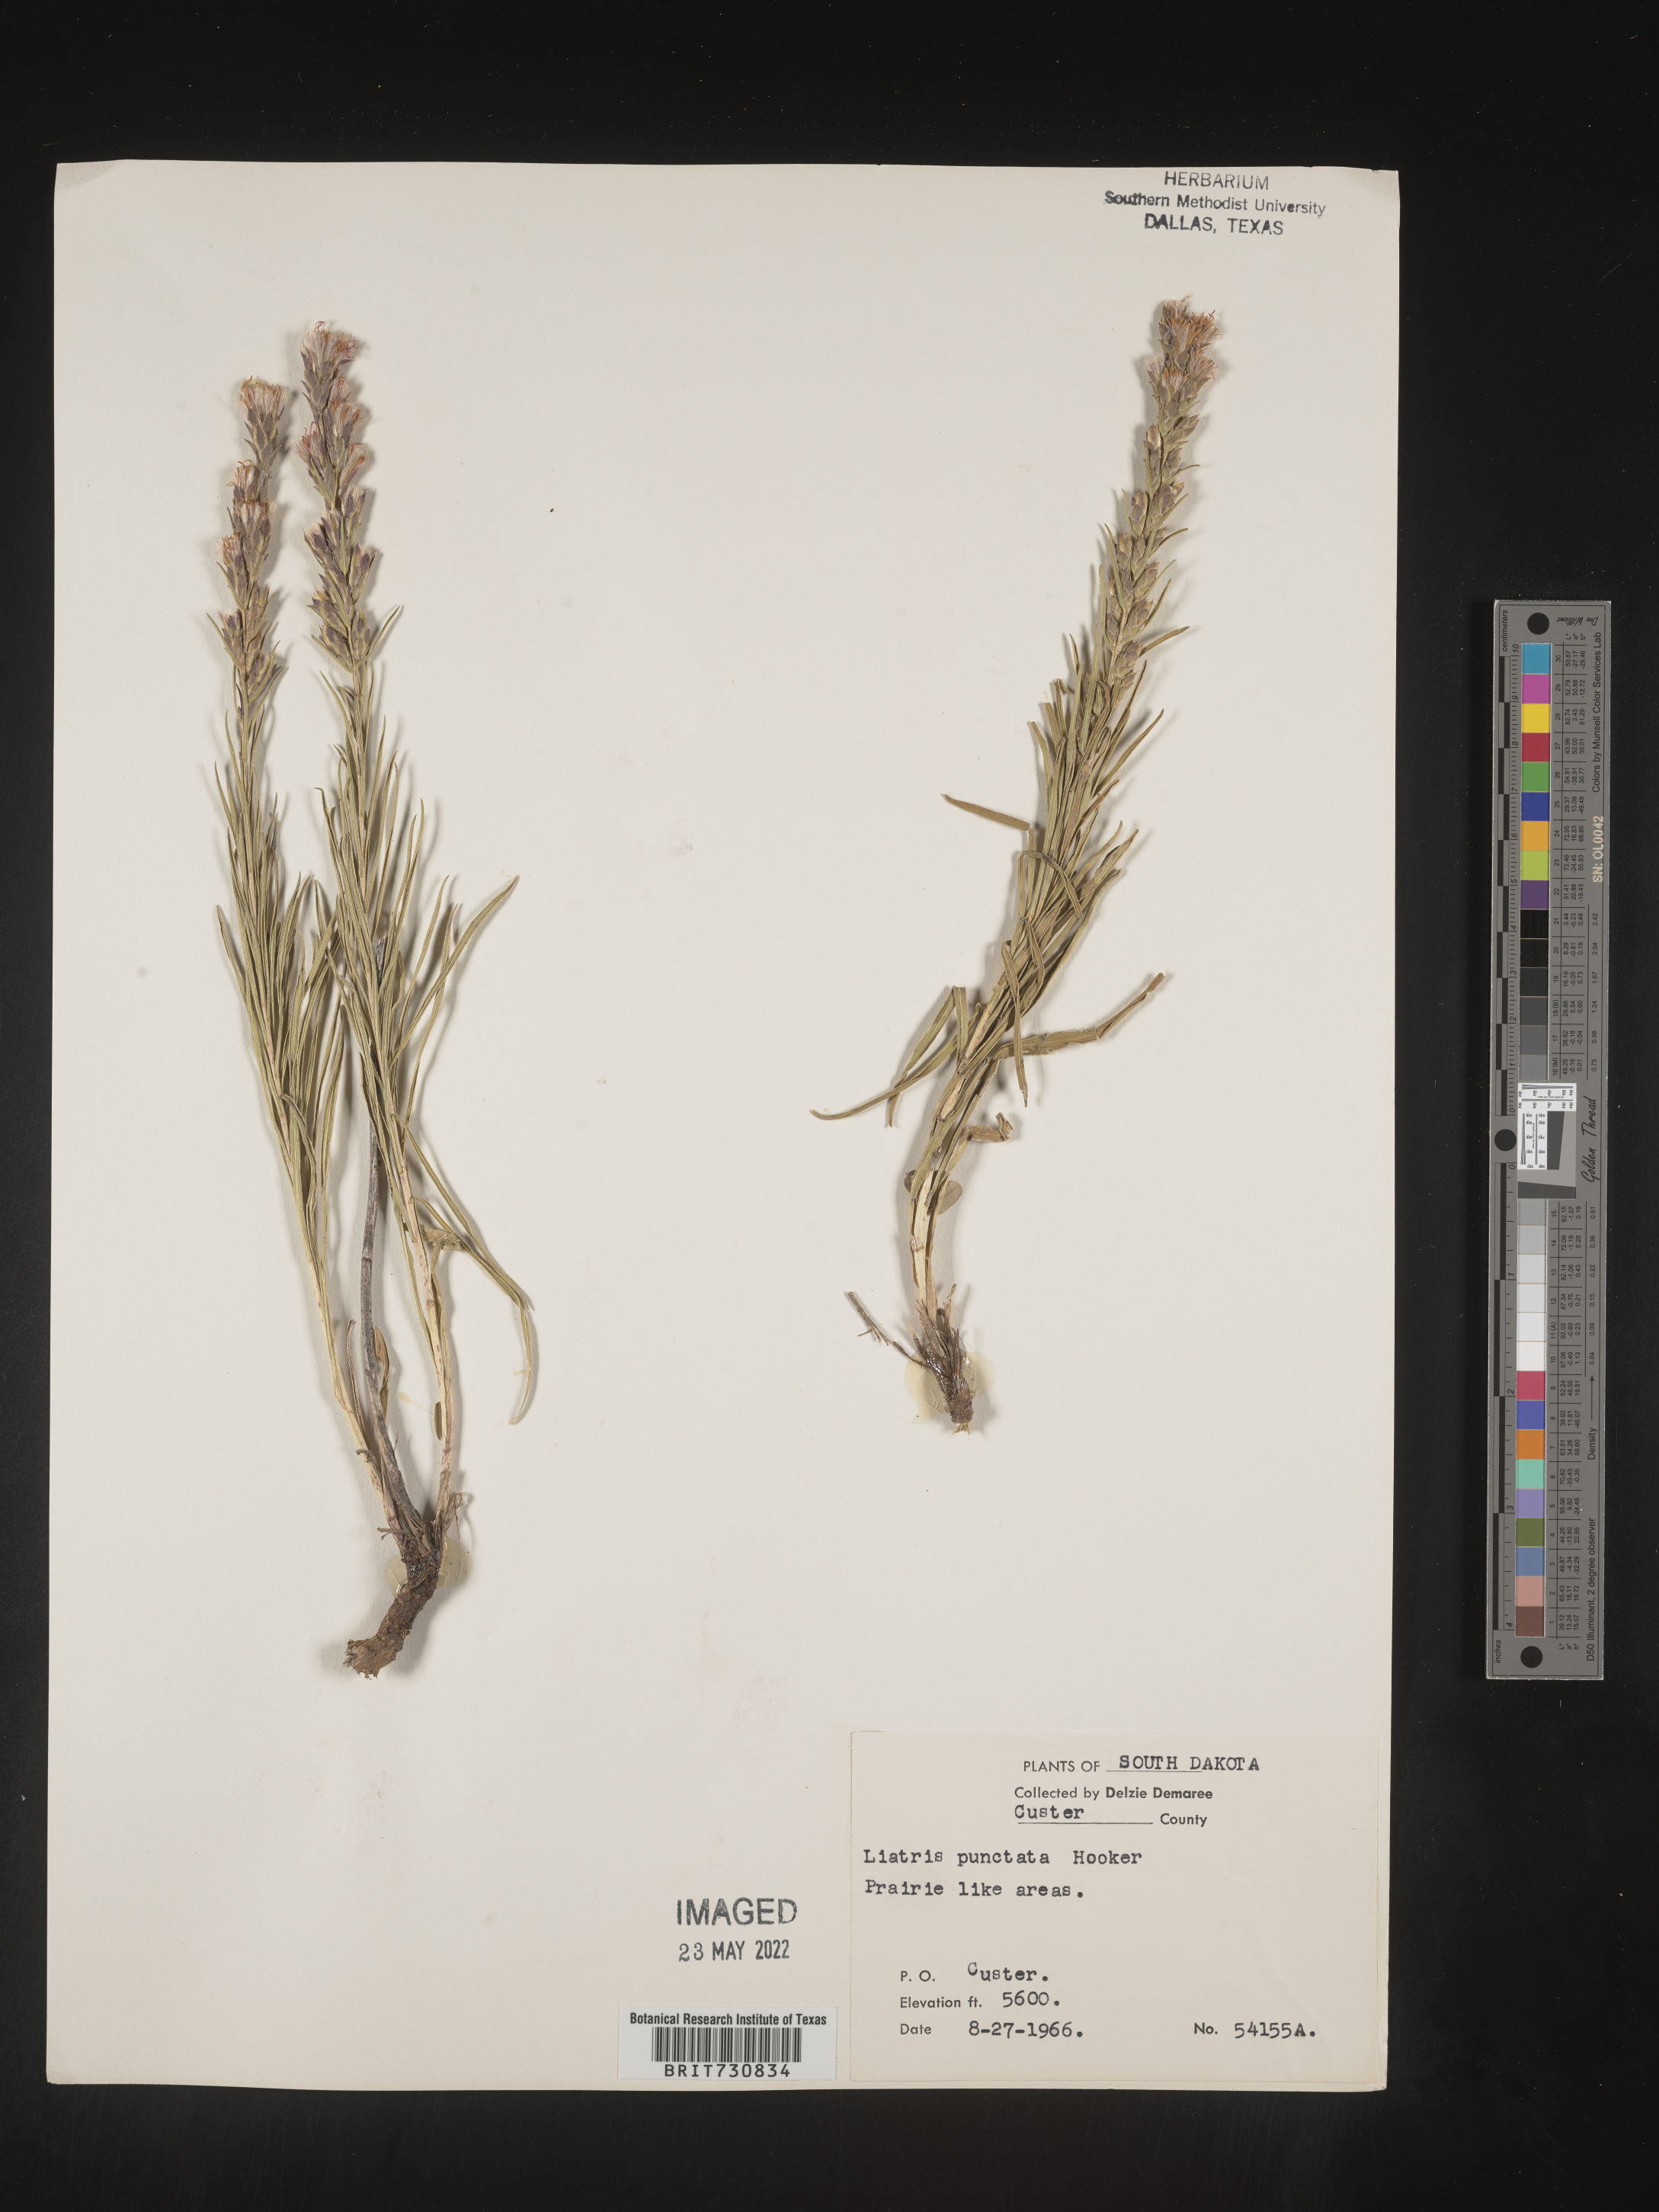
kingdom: Plantae
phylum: Tracheophyta
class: Magnoliopsida
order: Asterales
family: Asteraceae
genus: Liatris
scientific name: Liatris punctata
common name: Dotted gayfeather
